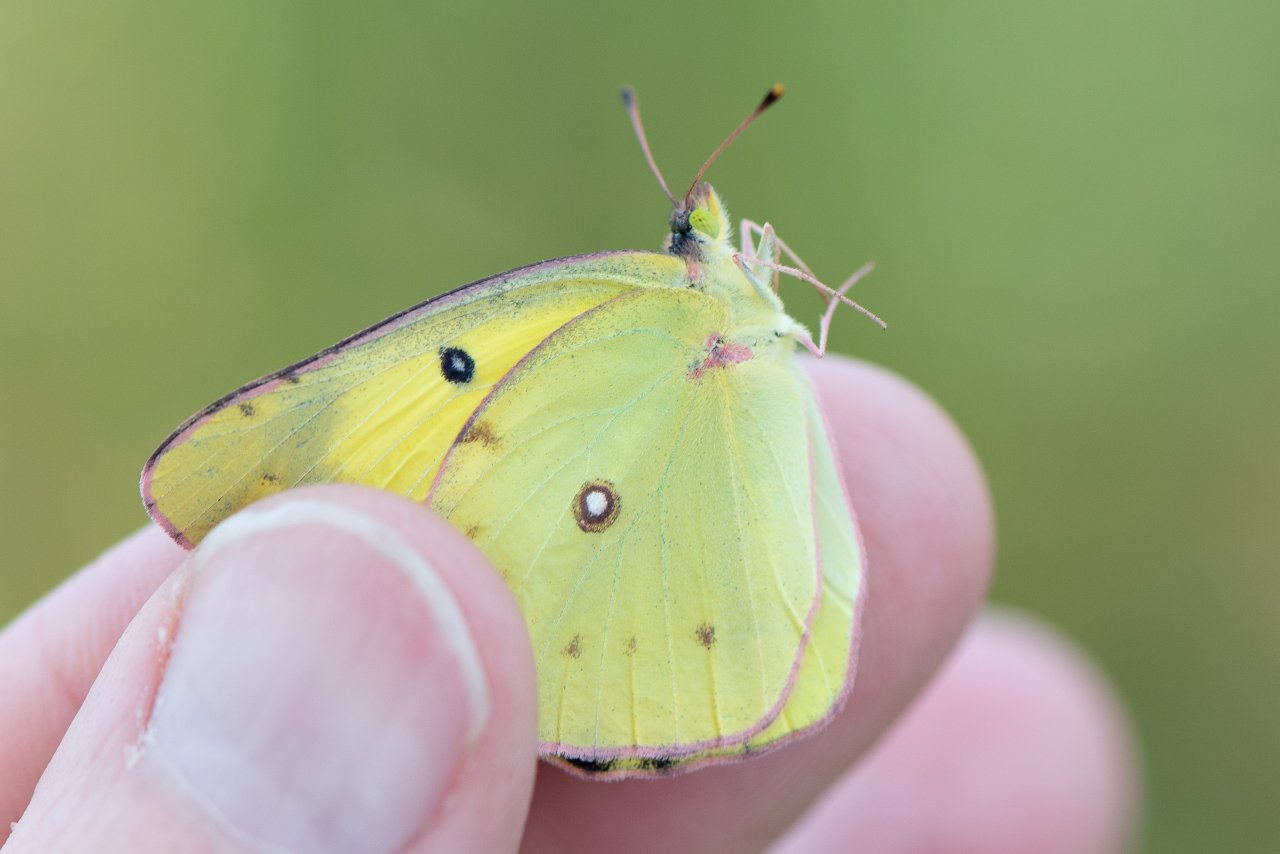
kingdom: Animalia
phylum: Arthropoda
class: Insecta
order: Lepidoptera
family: Pieridae
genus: Colias
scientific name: Colias philodice
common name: Clouded Sulphur
